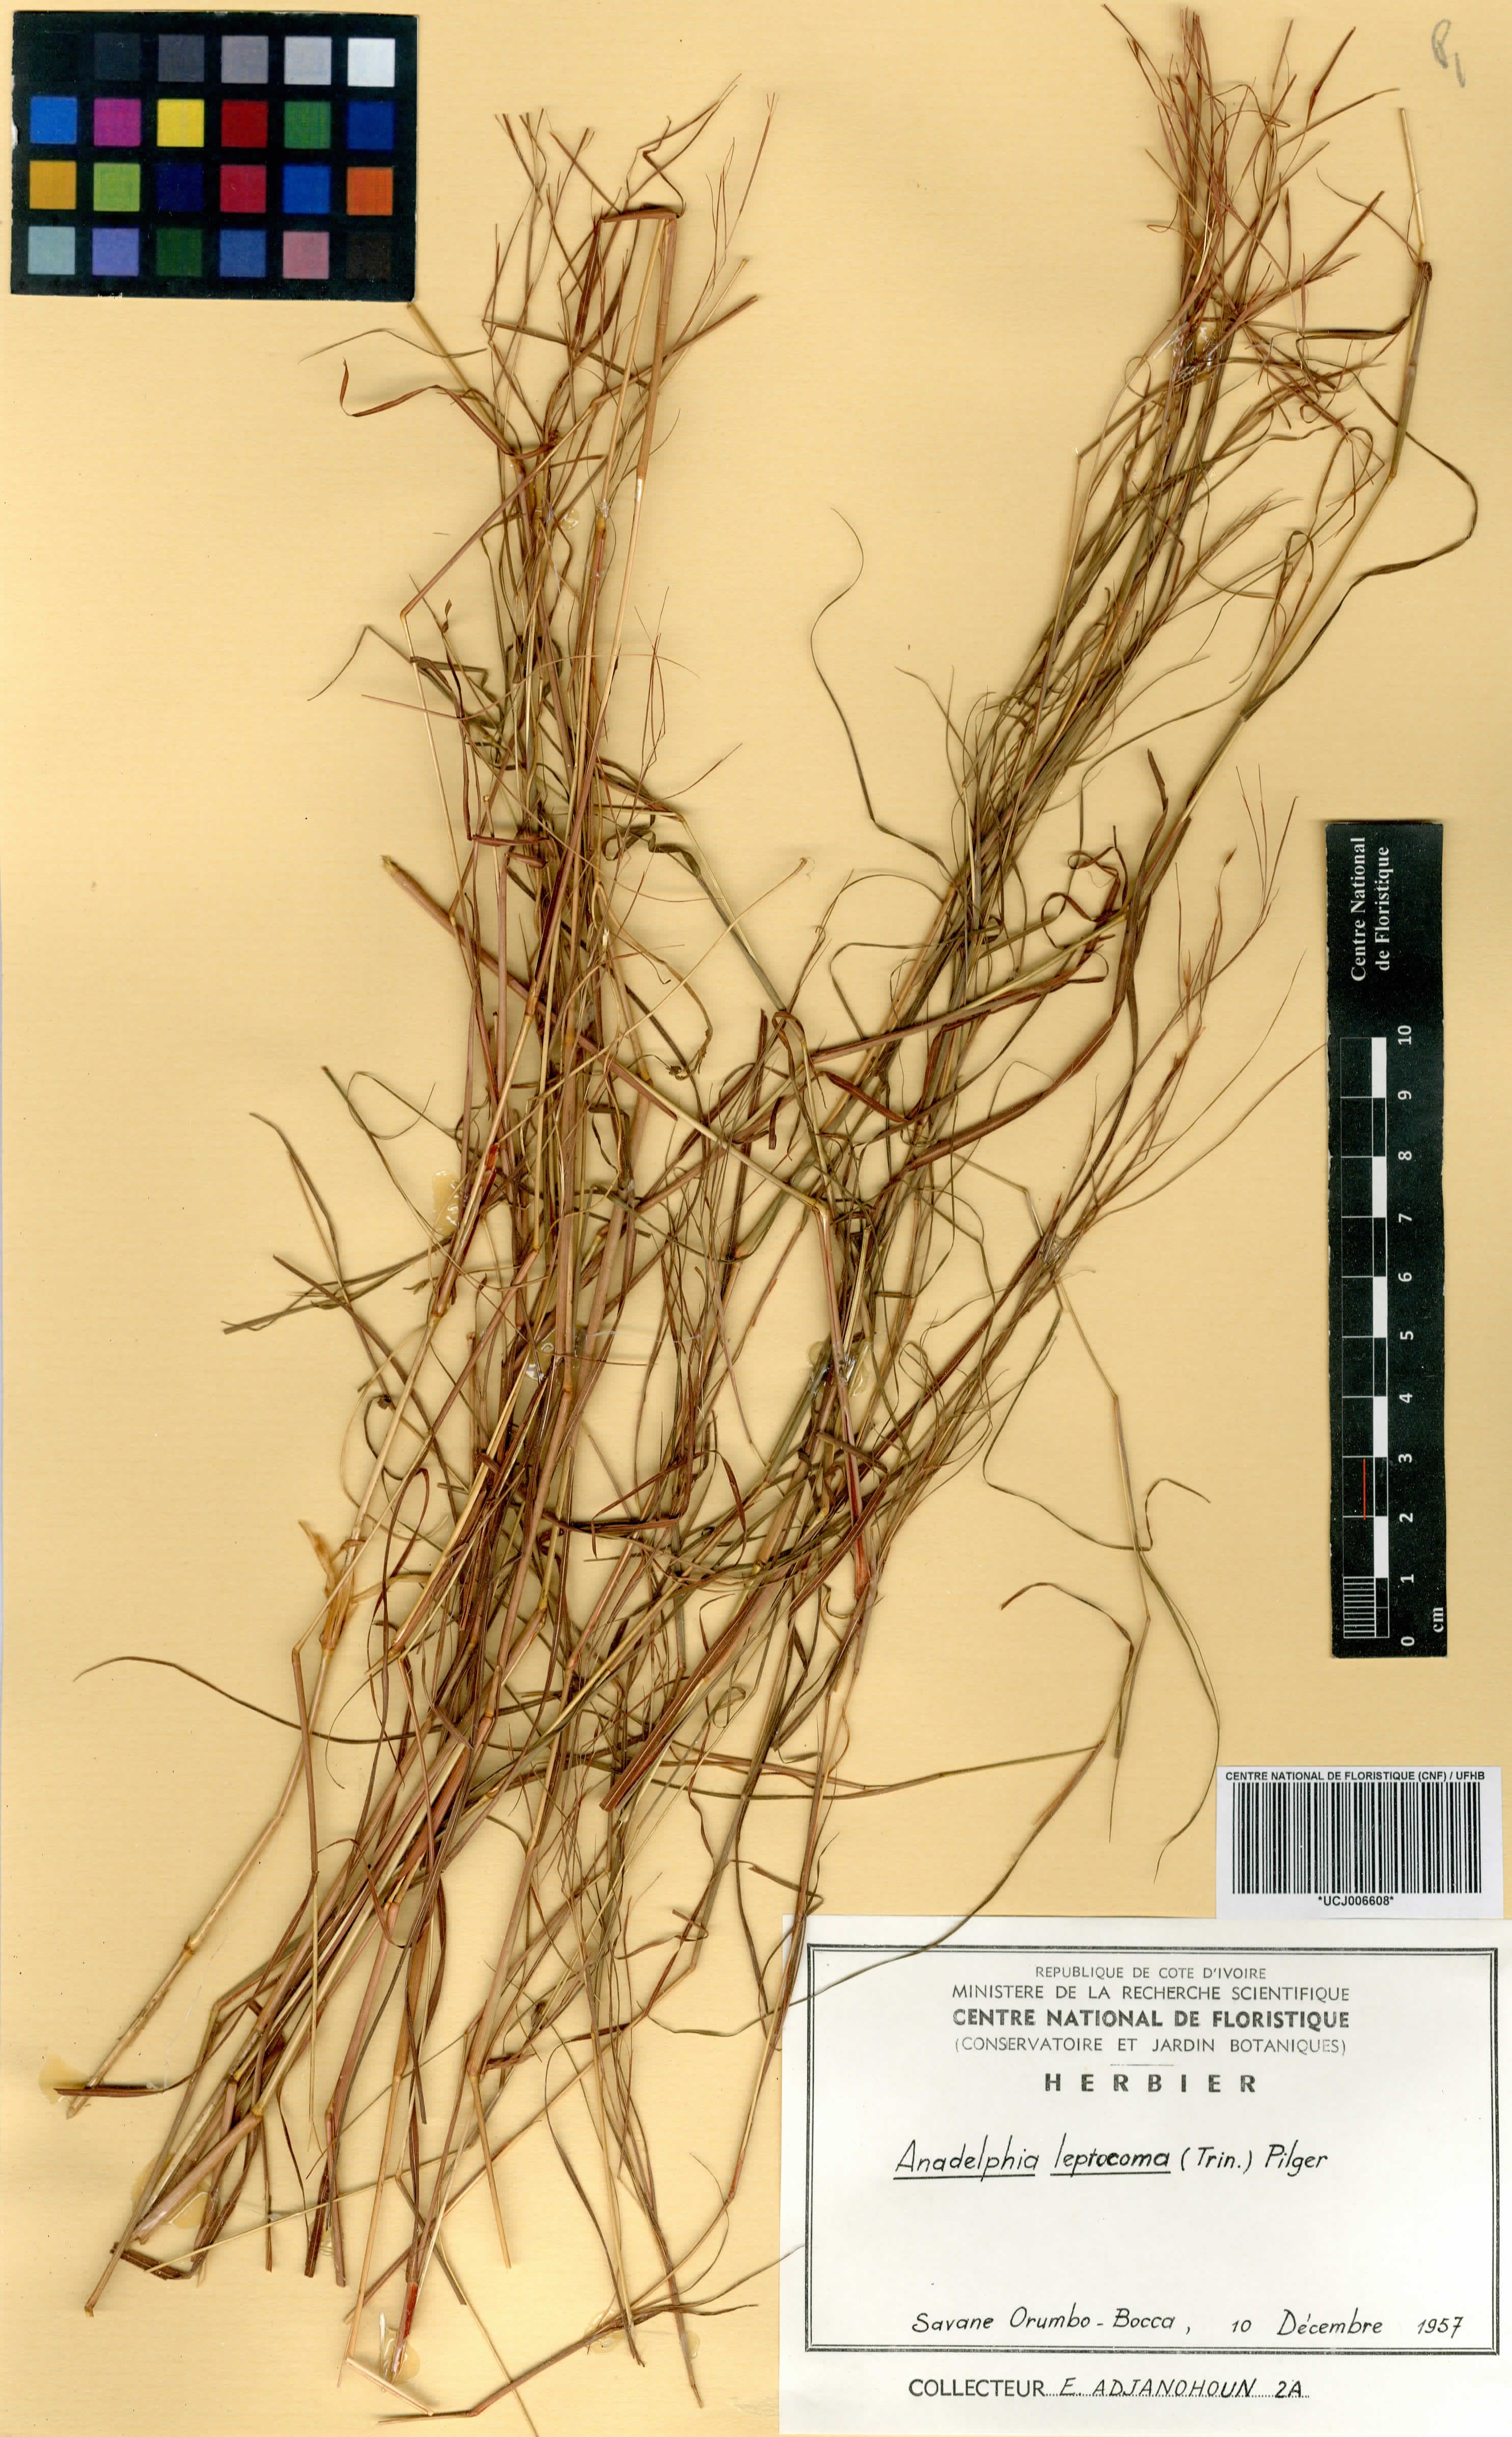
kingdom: Plantae
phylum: Tracheophyta
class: Liliopsida
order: Poales
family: Poaceae
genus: Anadelphia
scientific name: Anadelphia leptocoma
